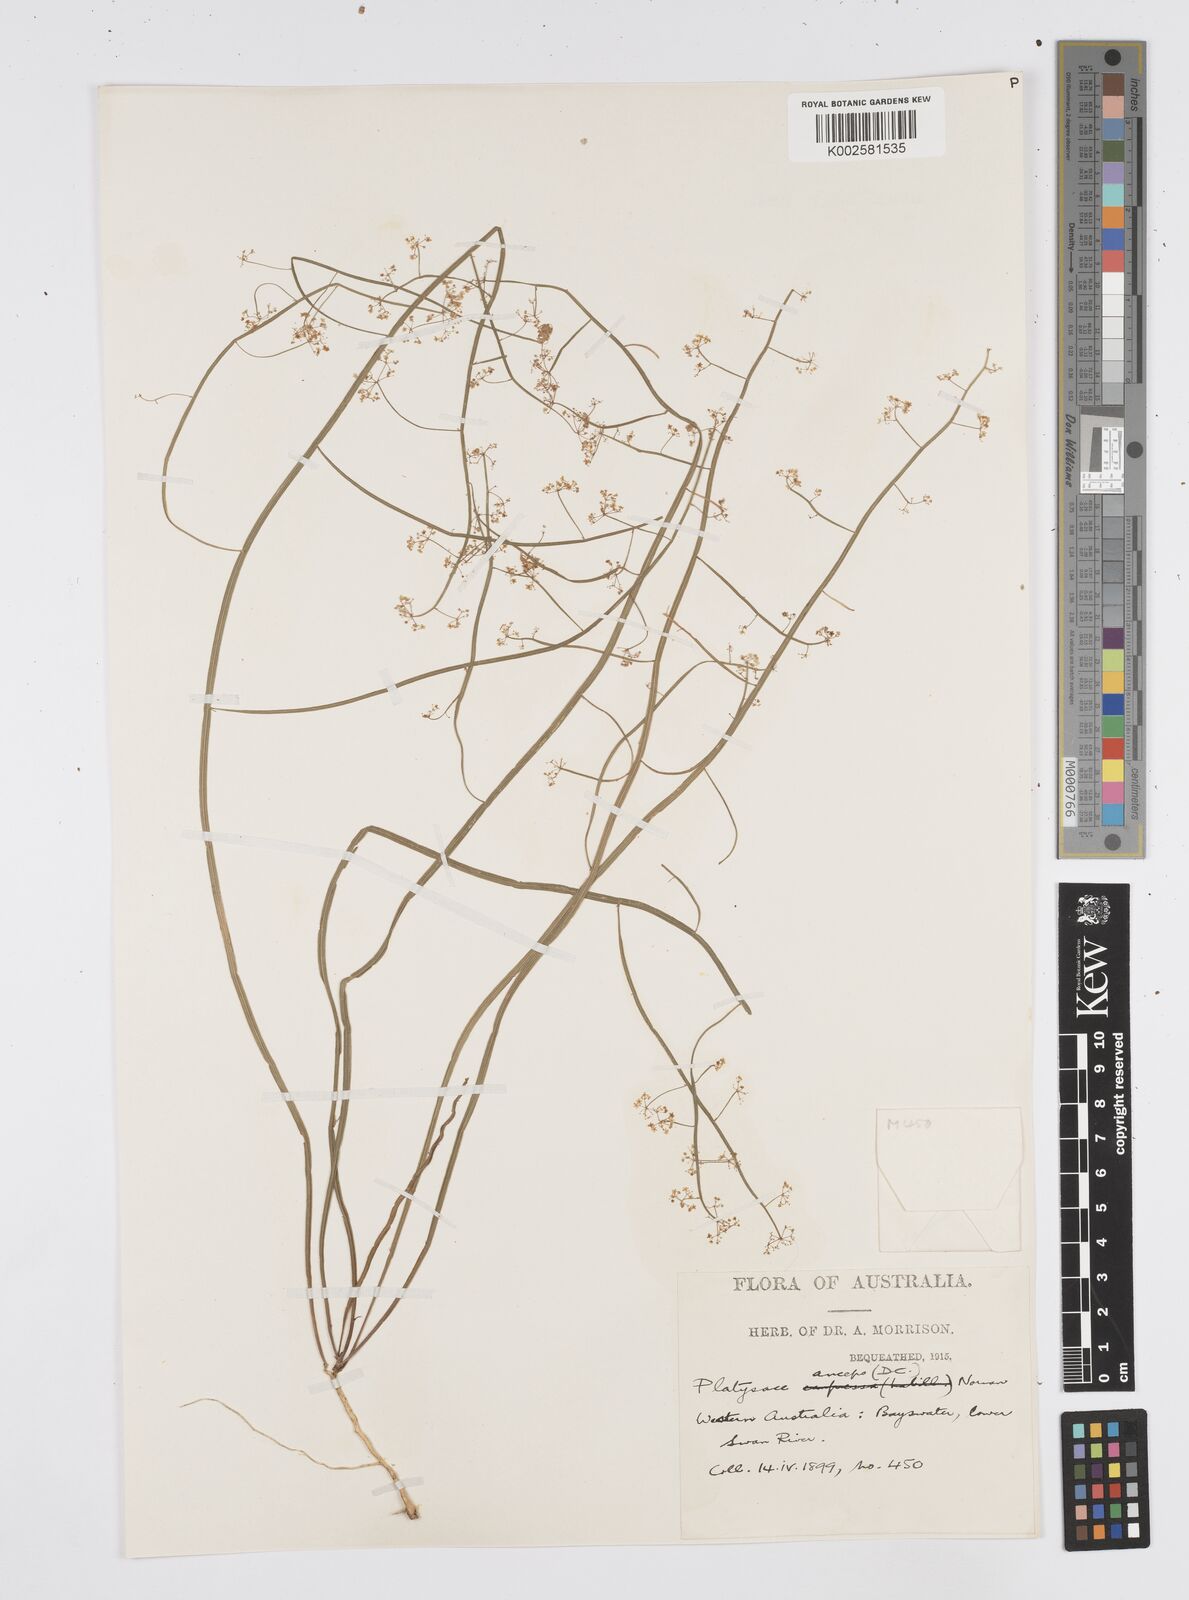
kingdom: Plantae
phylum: Tracheophyta
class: Magnoliopsida
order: Apiales
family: Apiaceae
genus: Centella
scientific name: Centella
